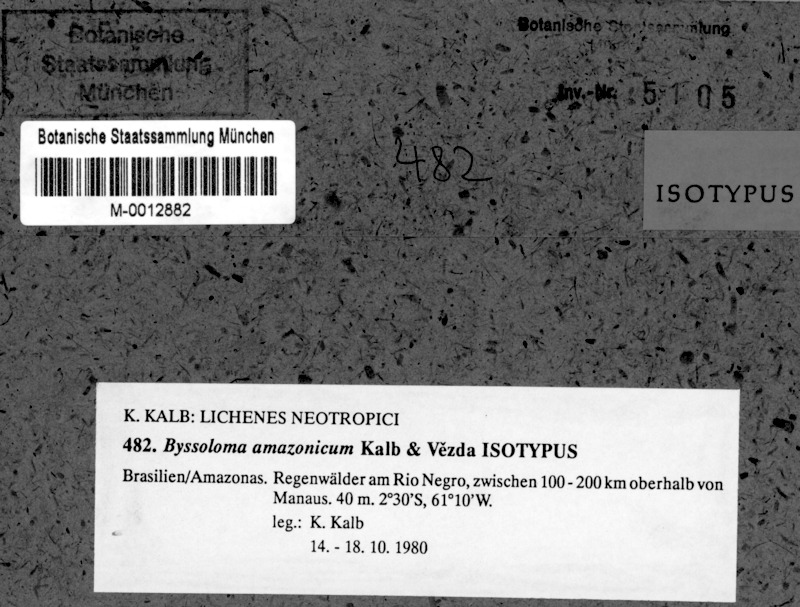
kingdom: Fungi
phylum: Ascomycota
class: Lecanoromycetes
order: Lecanorales
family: Byssolomataceae
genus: Byssoloma
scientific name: Byssoloma amazonicum
